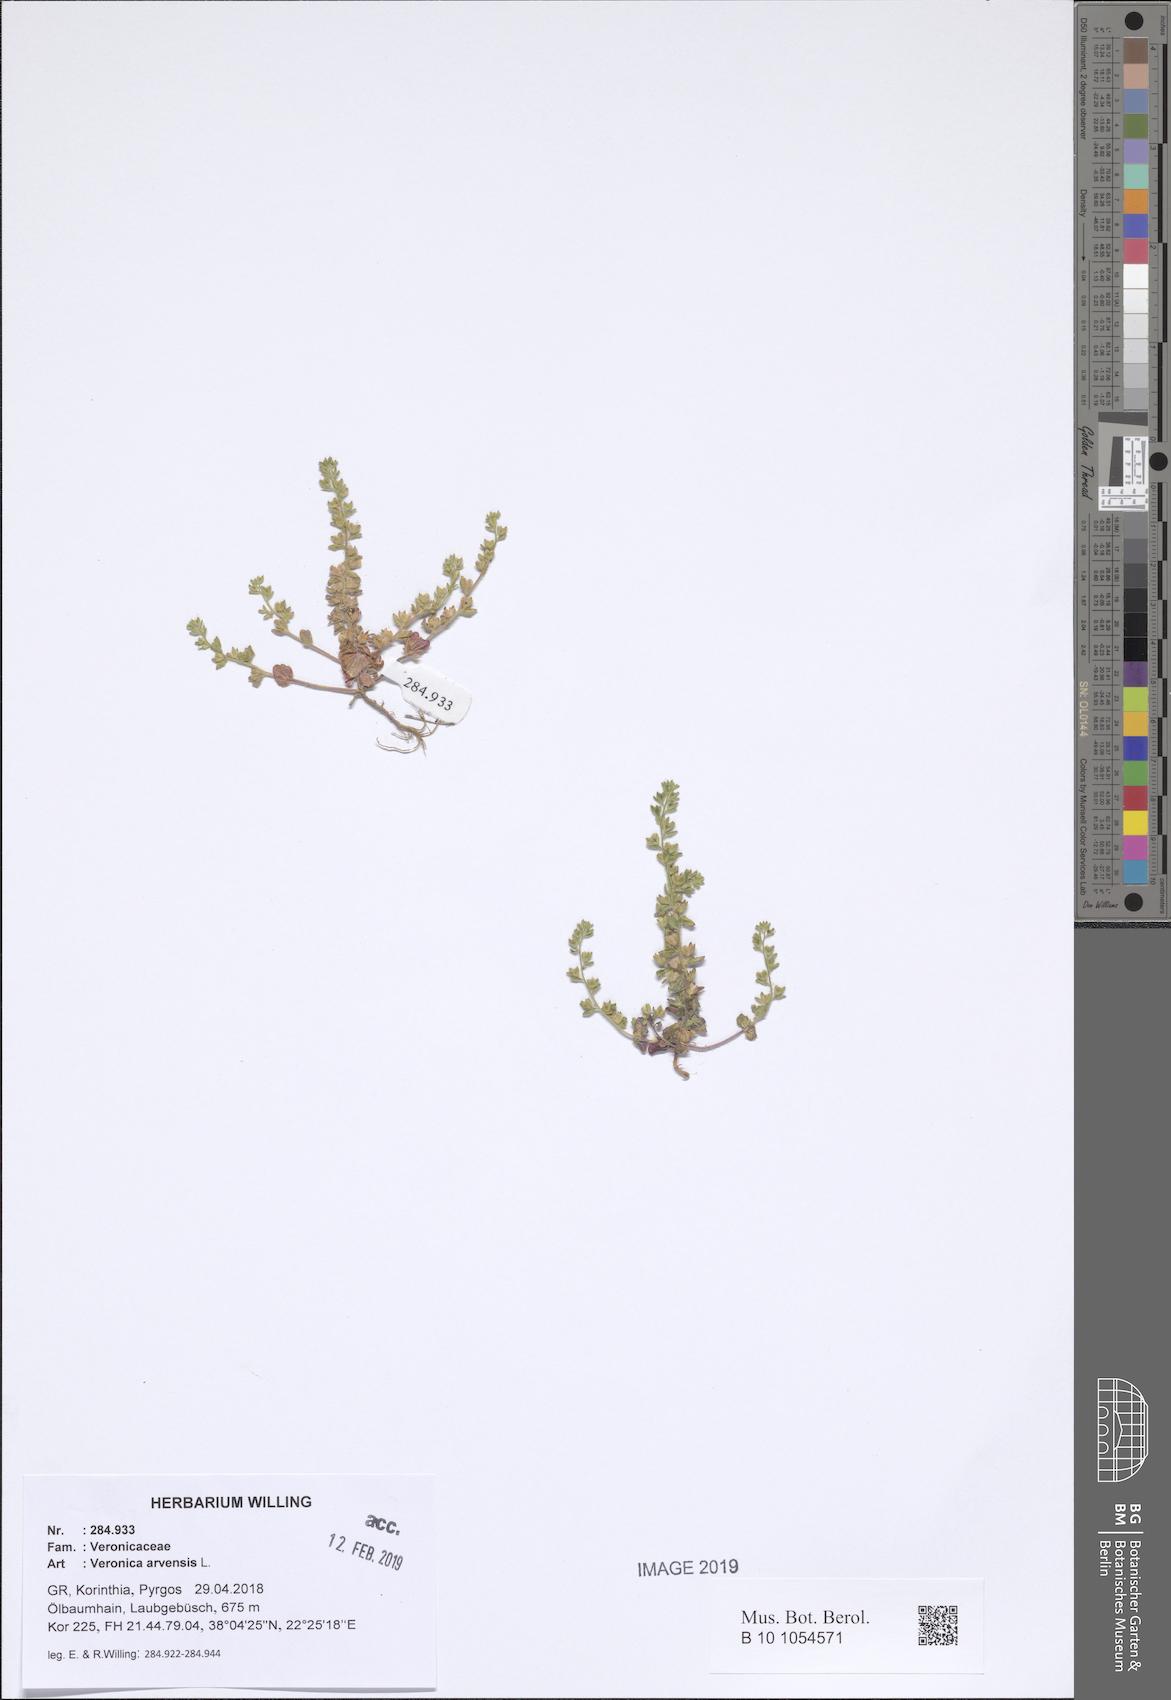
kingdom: Plantae
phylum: Tracheophyta
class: Magnoliopsida
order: Lamiales
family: Plantaginaceae
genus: Veronica
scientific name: Veronica arvensis
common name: Corn speedwell
